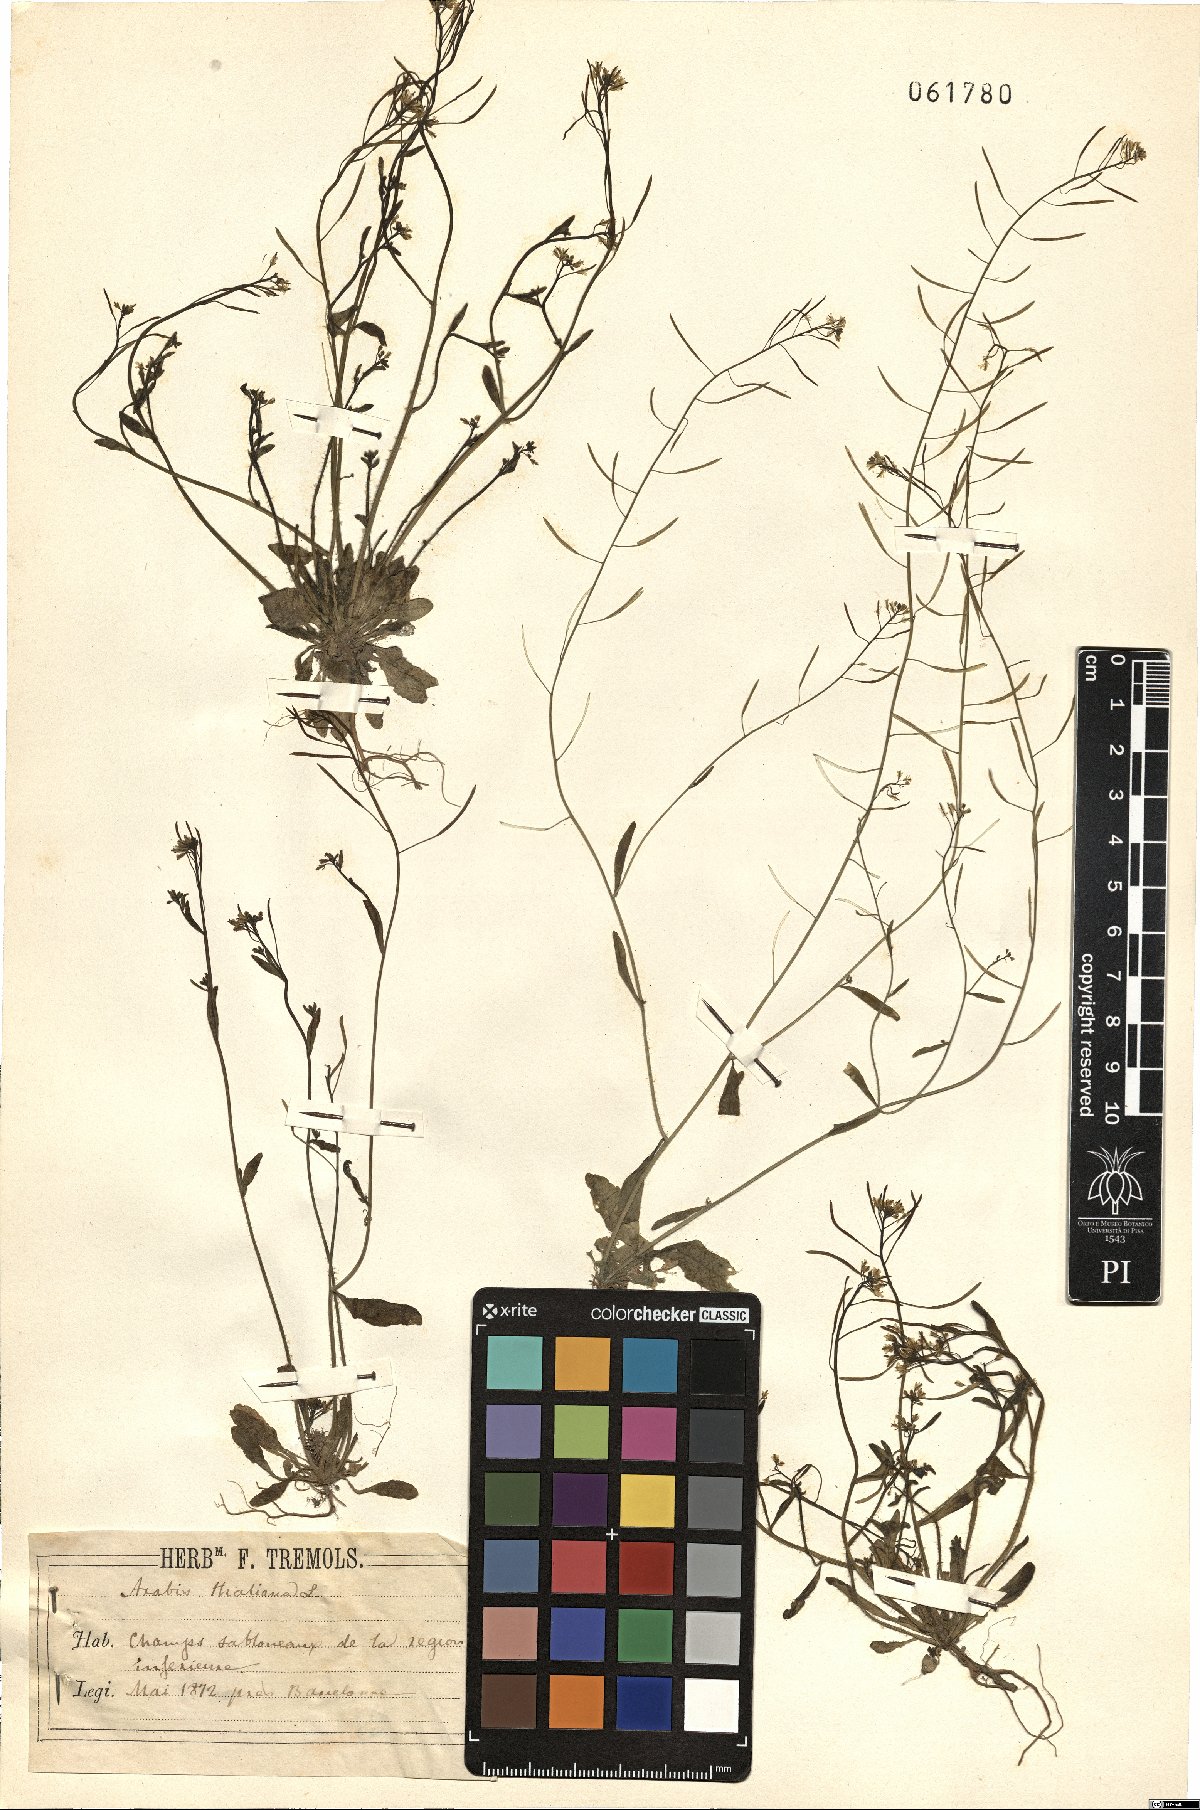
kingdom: Plantae
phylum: Tracheophyta
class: Magnoliopsida
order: Brassicales
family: Brassicaceae
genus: Arabidopsis
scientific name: Arabidopsis thaliana
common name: Thale cress
